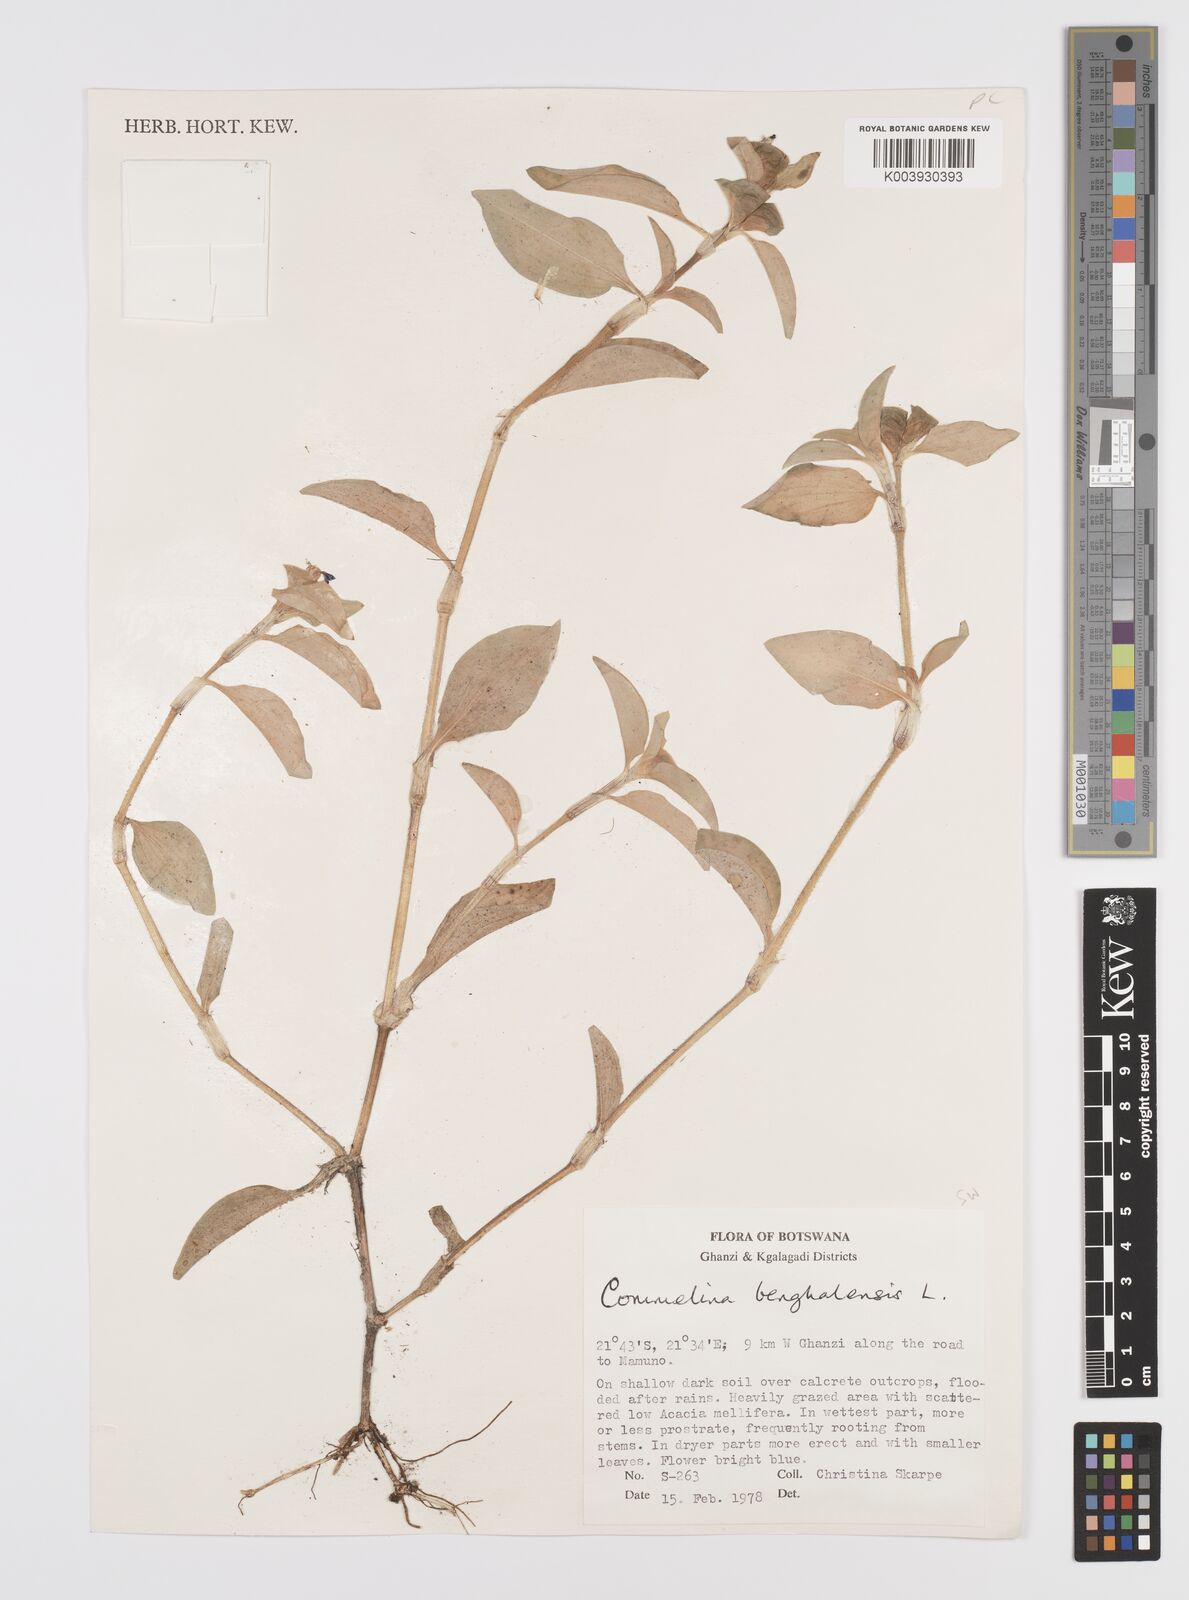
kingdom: Plantae
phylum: Tracheophyta
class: Liliopsida
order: Commelinales
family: Commelinaceae
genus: Commelina
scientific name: Commelina benghalensis
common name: Jio
